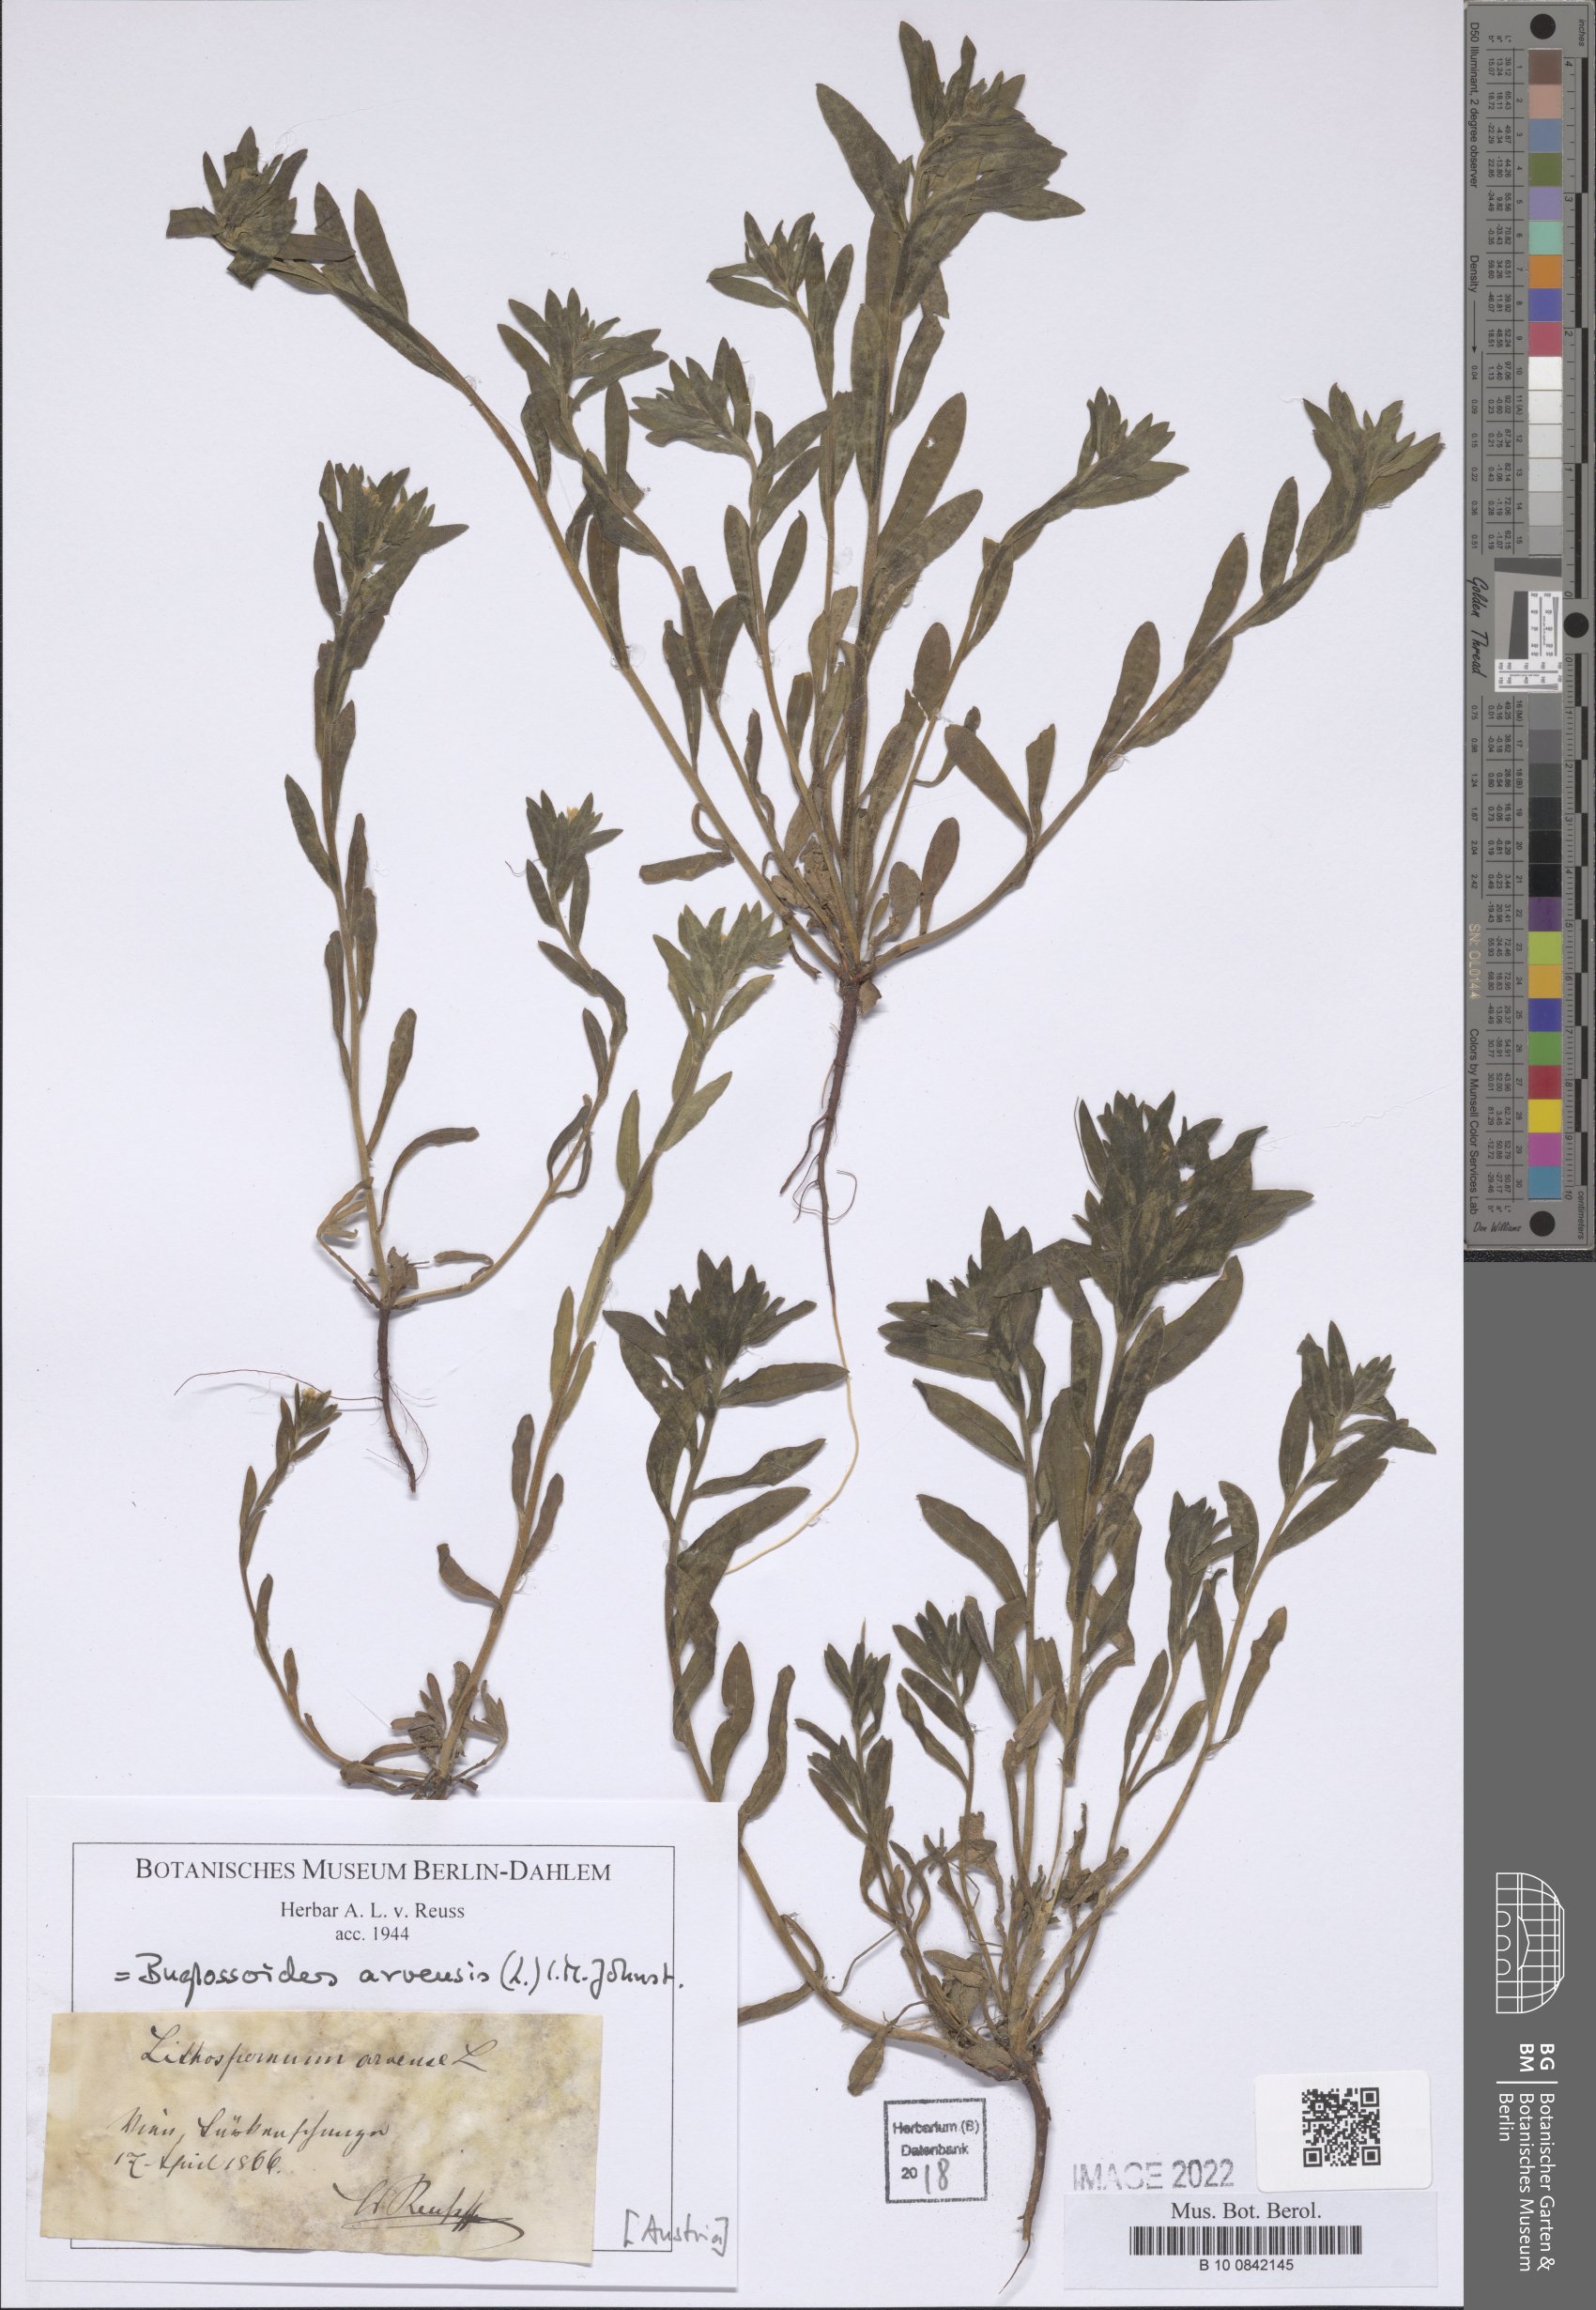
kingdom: Plantae
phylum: Tracheophyta
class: Magnoliopsida
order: Boraginales
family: Boraginaceae
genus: Buglossoides
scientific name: Buglossoides arvensis
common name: Corn gromwell
